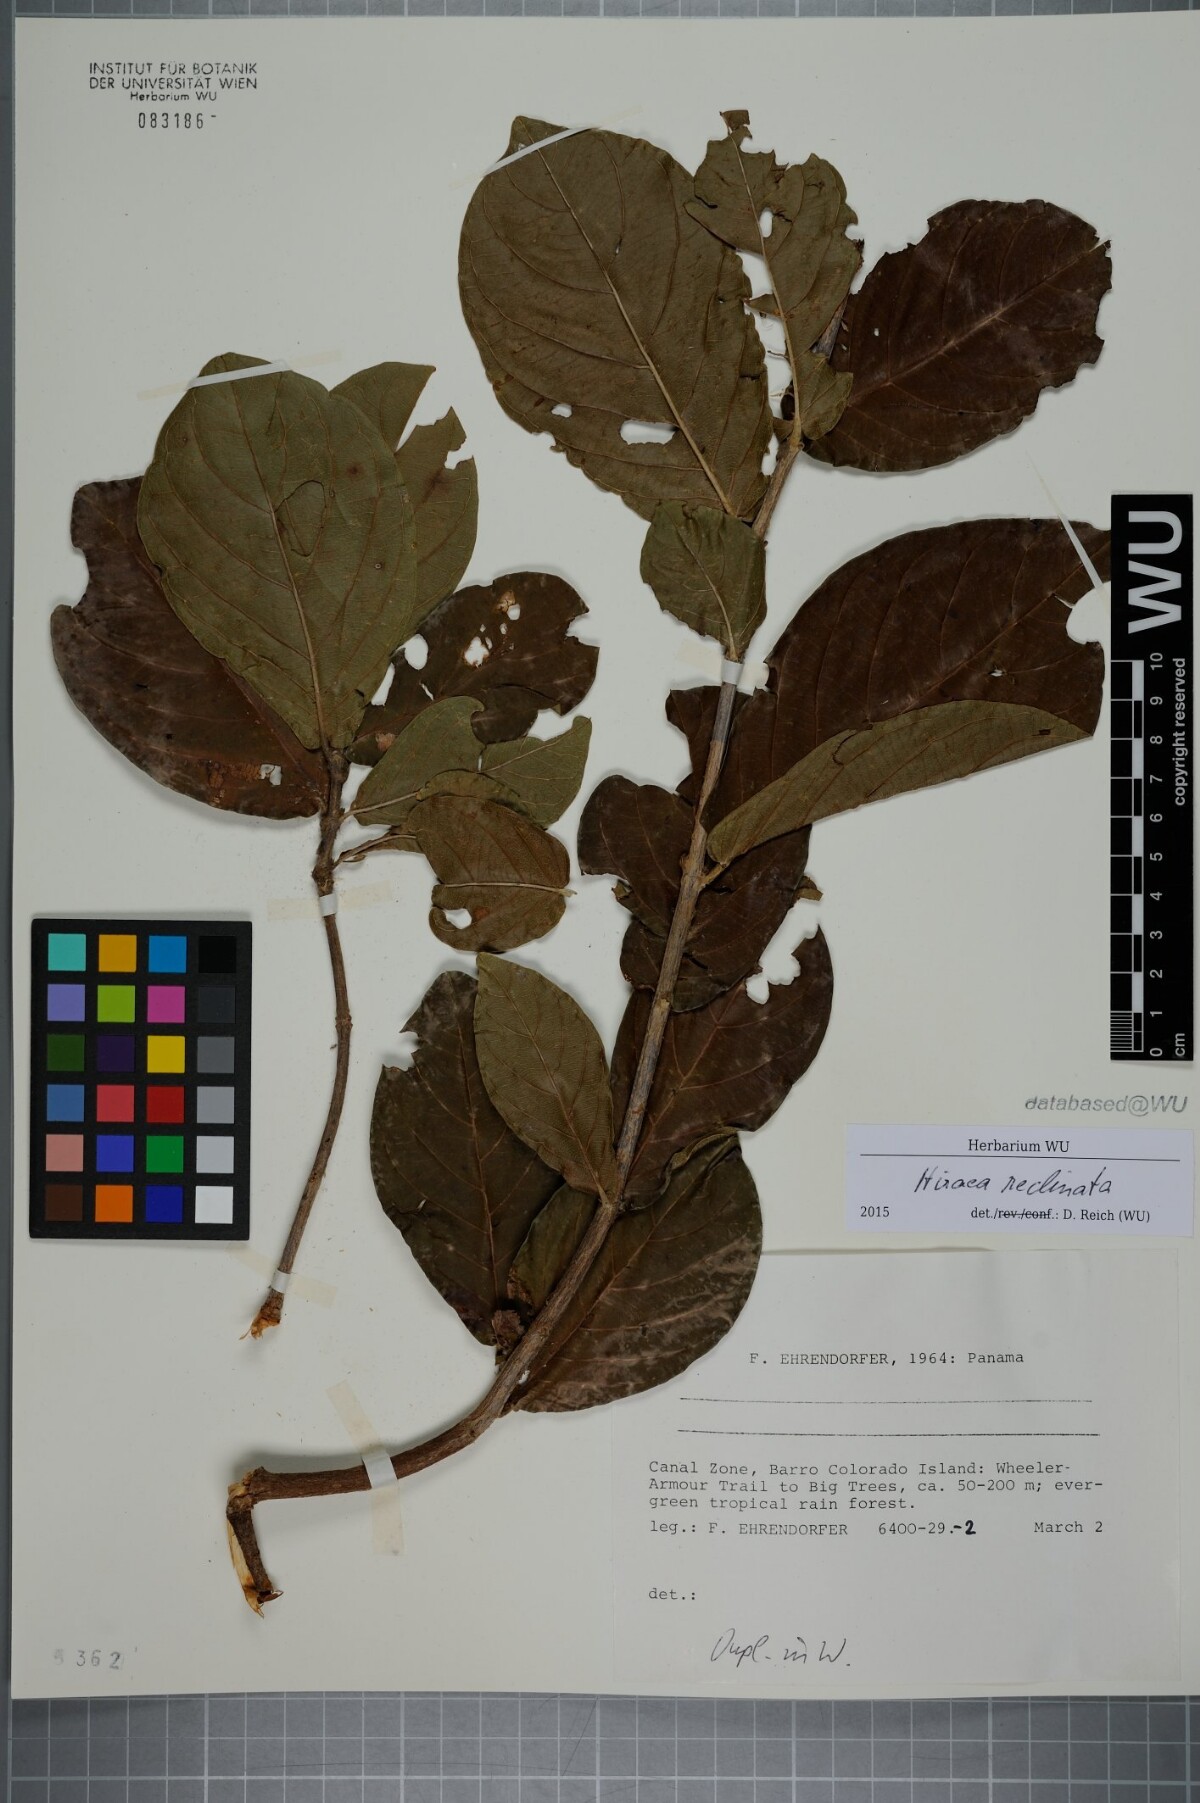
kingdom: Plantae
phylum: Tracheophyta
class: Magnoliopsida
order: Malpighiales
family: Malpighiaceae
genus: Hiraea
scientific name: Hiraea reclinata
